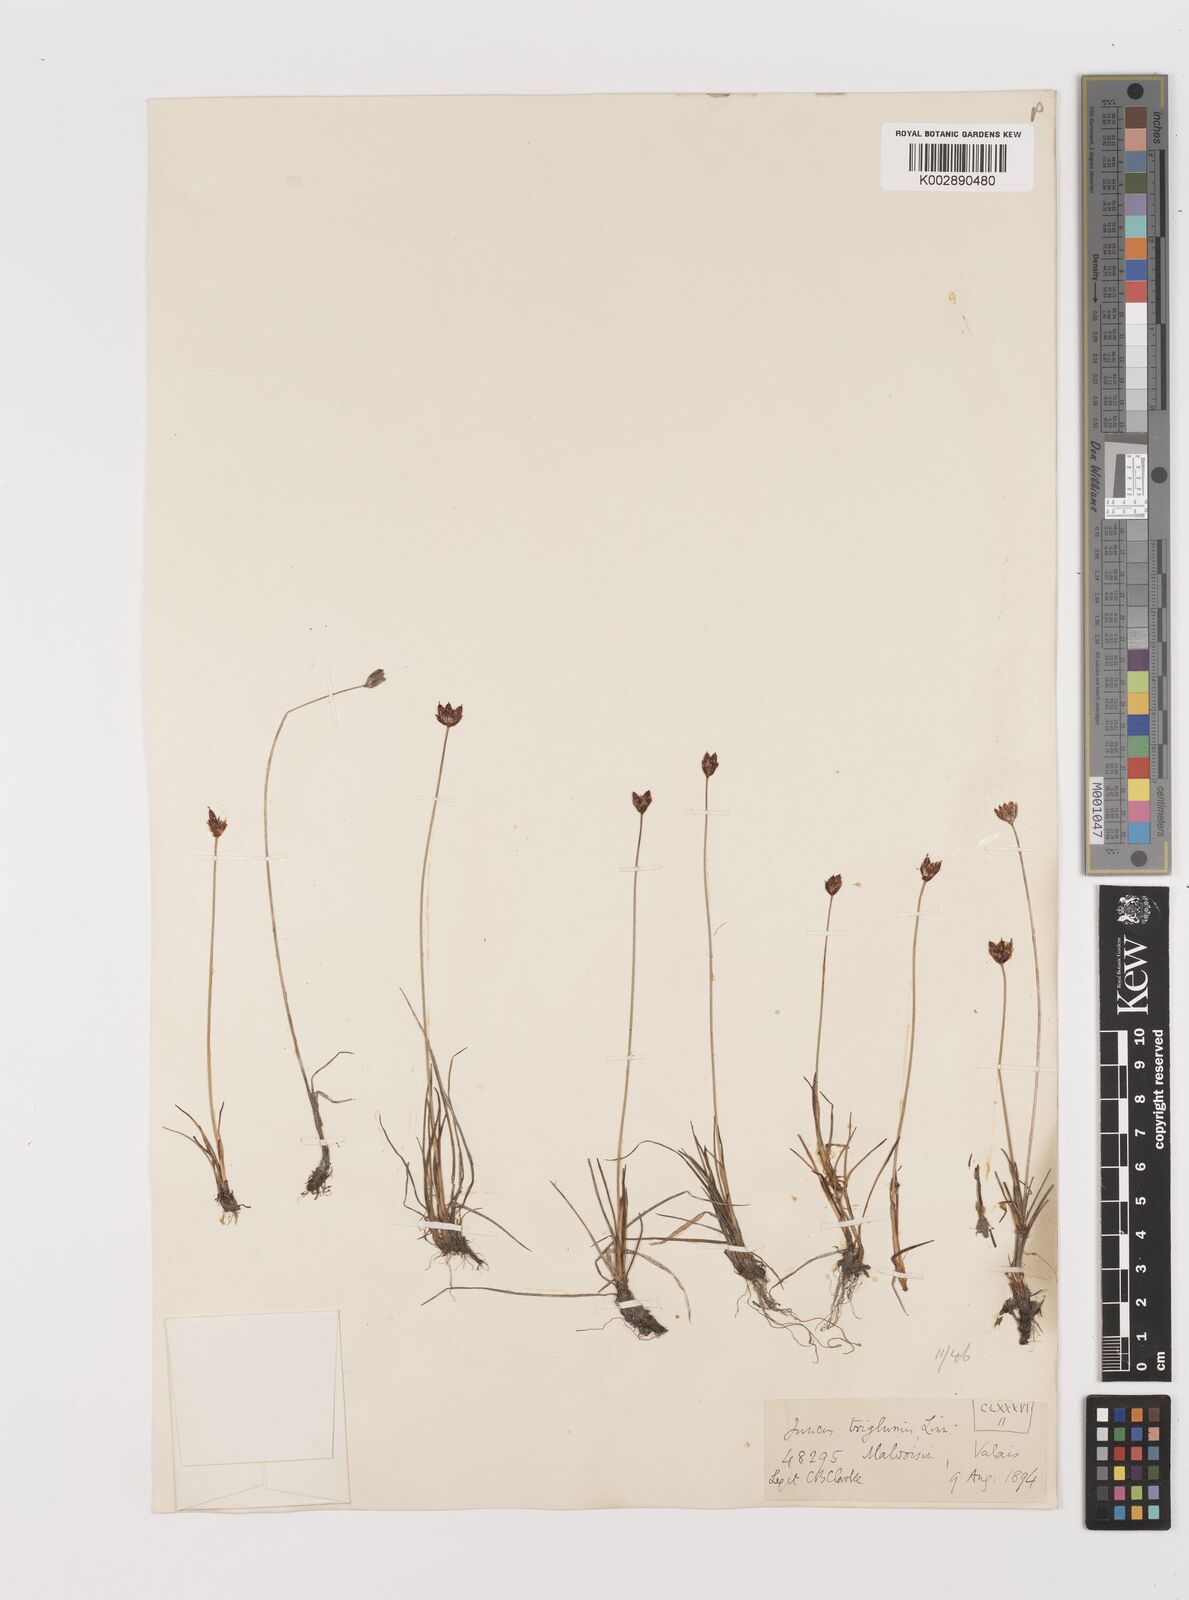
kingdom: Plantae
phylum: Tracheophyta
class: Liliopsida
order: Poales
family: Juncaceae
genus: Juncus
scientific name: Juncus triglumis
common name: Three-flowered rush
